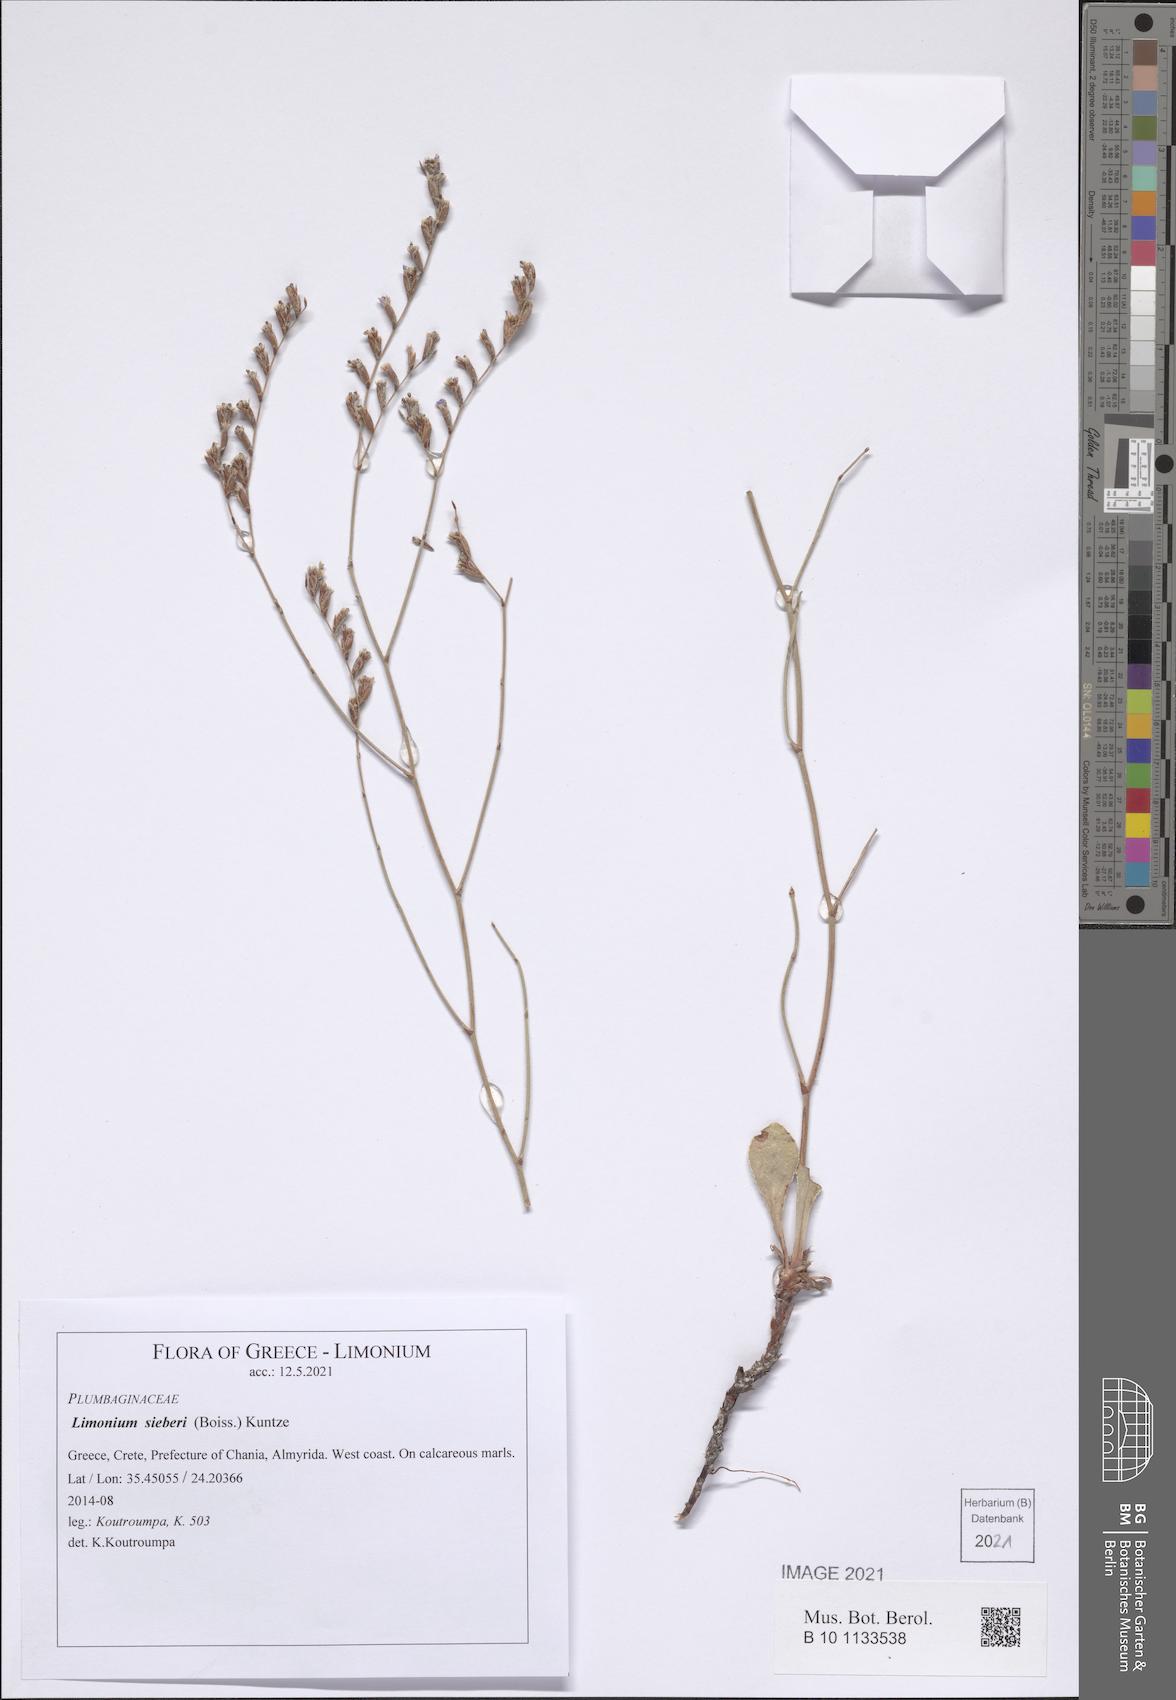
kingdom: Plantae
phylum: Tracheophyta
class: Magnoliopsida
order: Caryophyllales
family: Plumbaginaceae
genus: Limonium
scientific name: Limonium sieberi
